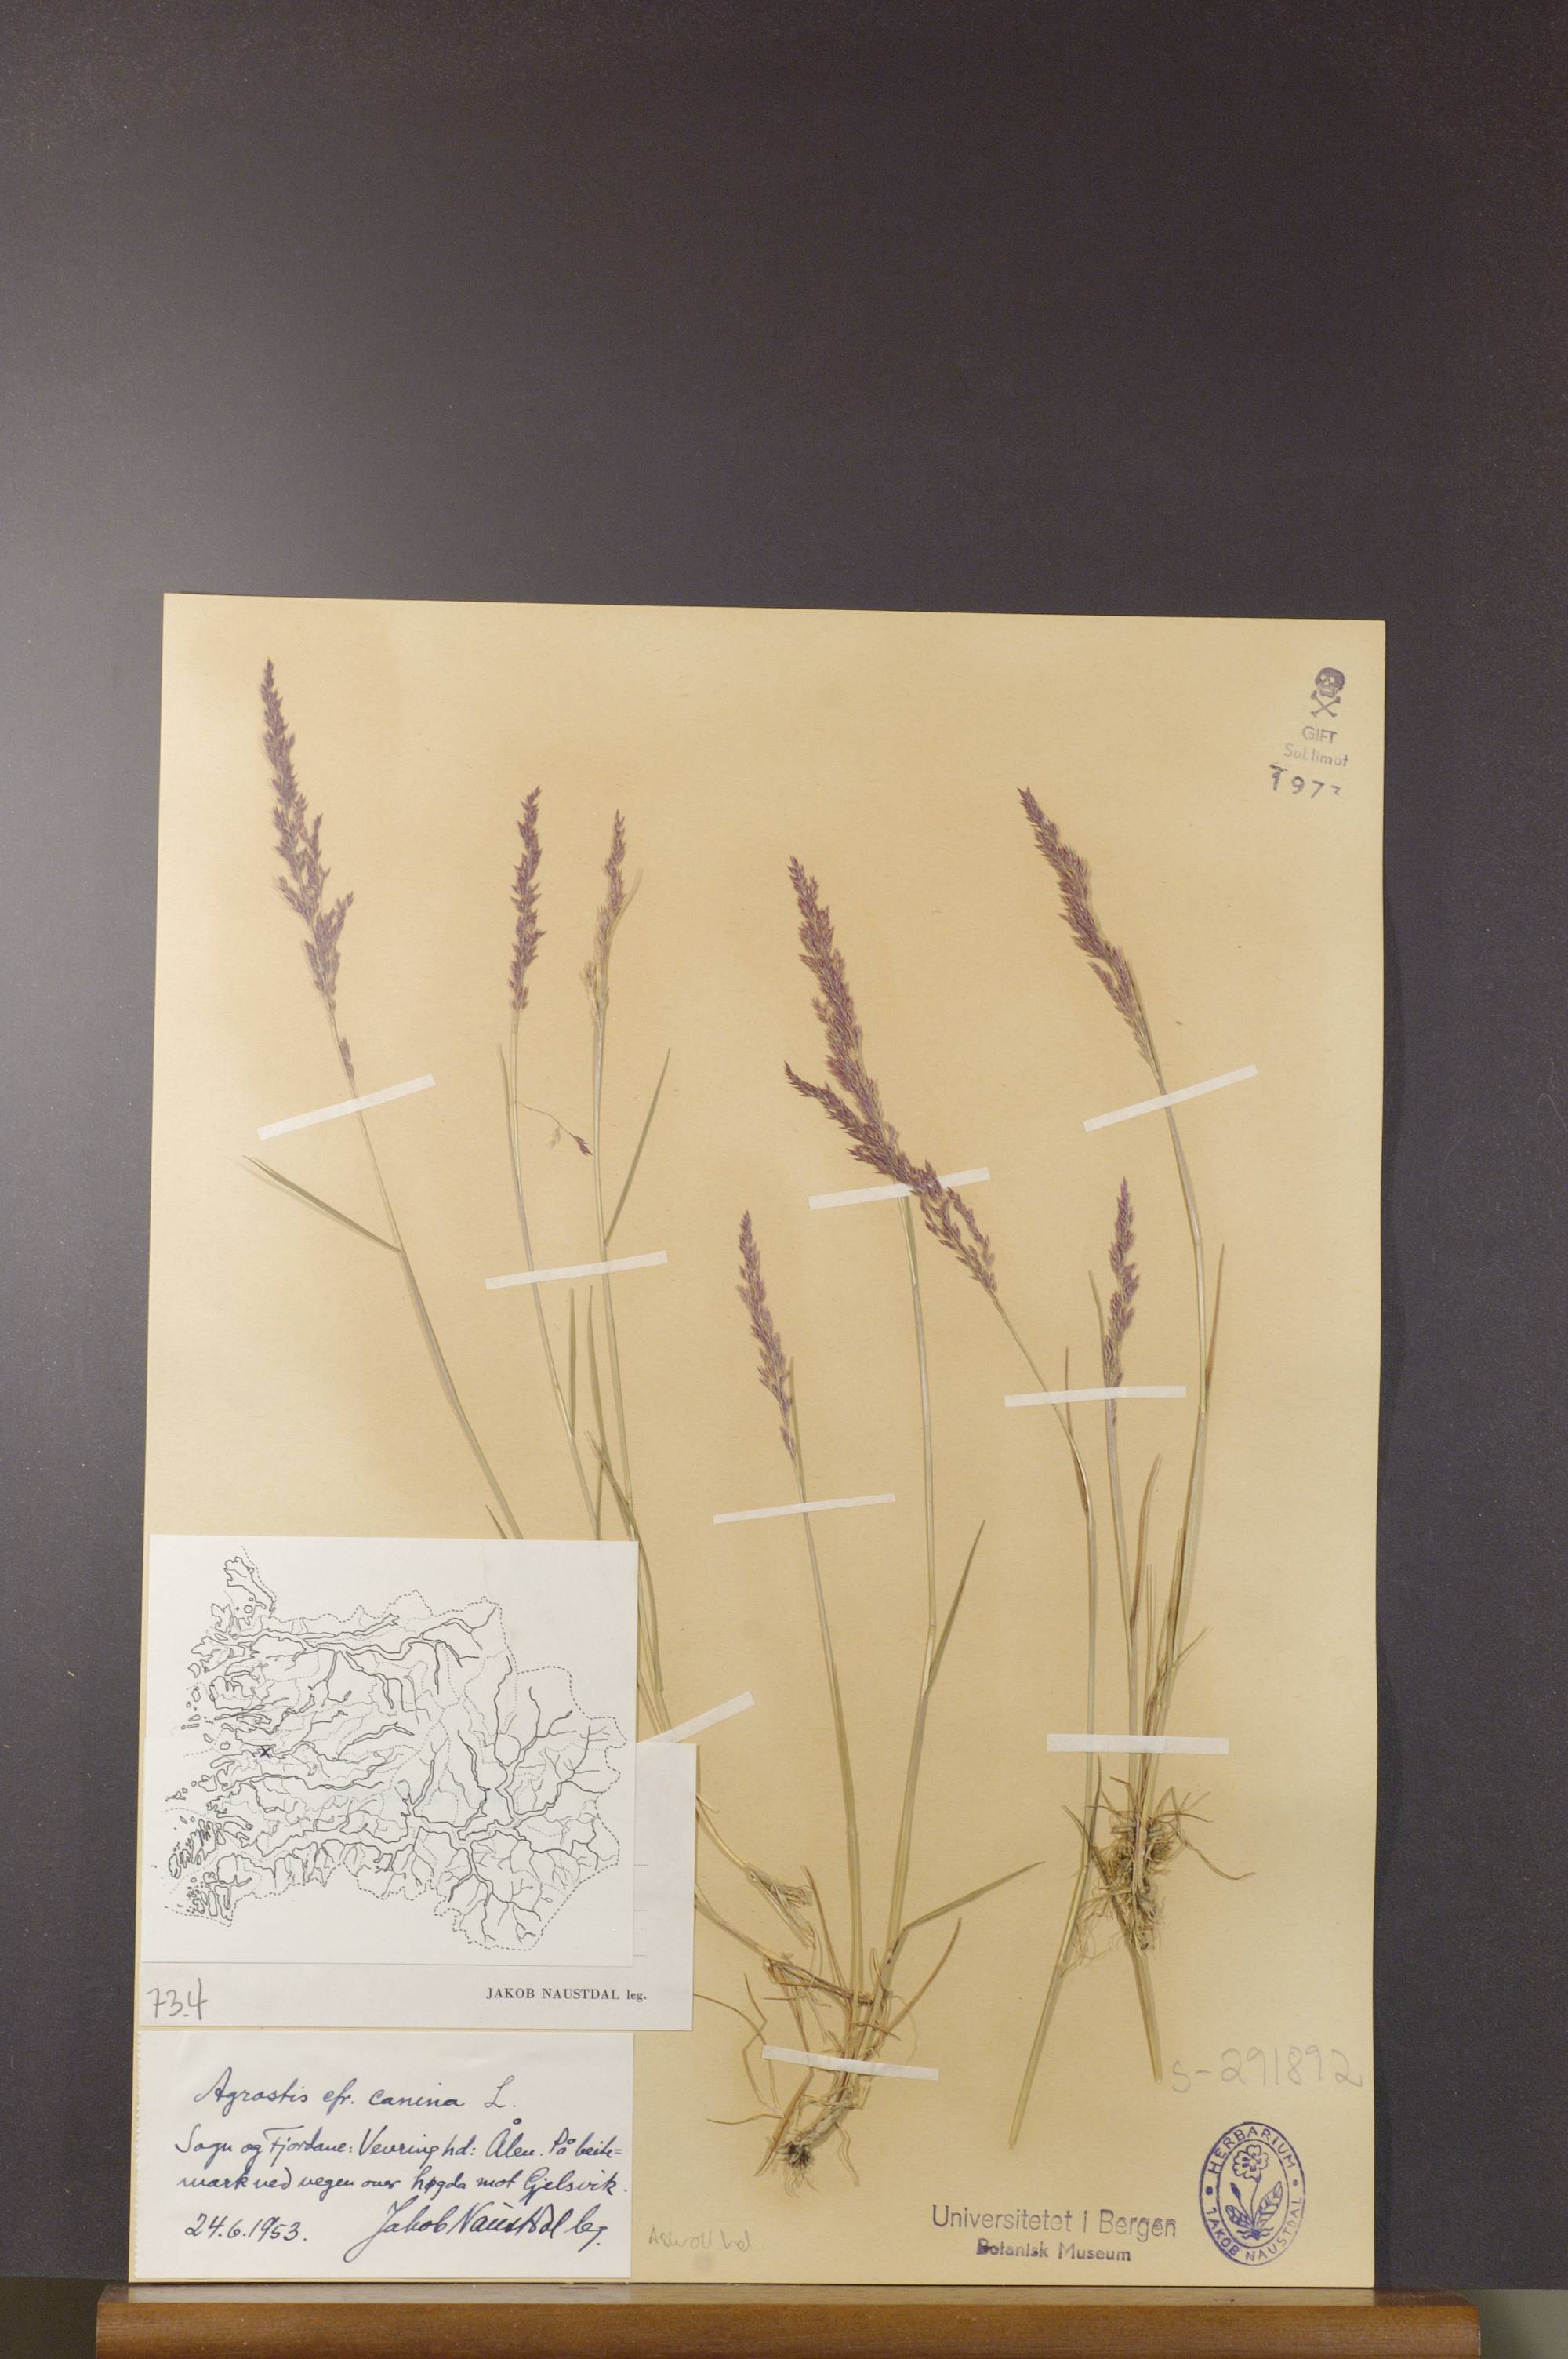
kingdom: Plantae
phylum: Tracheophyta
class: Liliopsida
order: Poales
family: Poaceae
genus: Agrostis
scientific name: Agrostis canina
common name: Velvet bent
